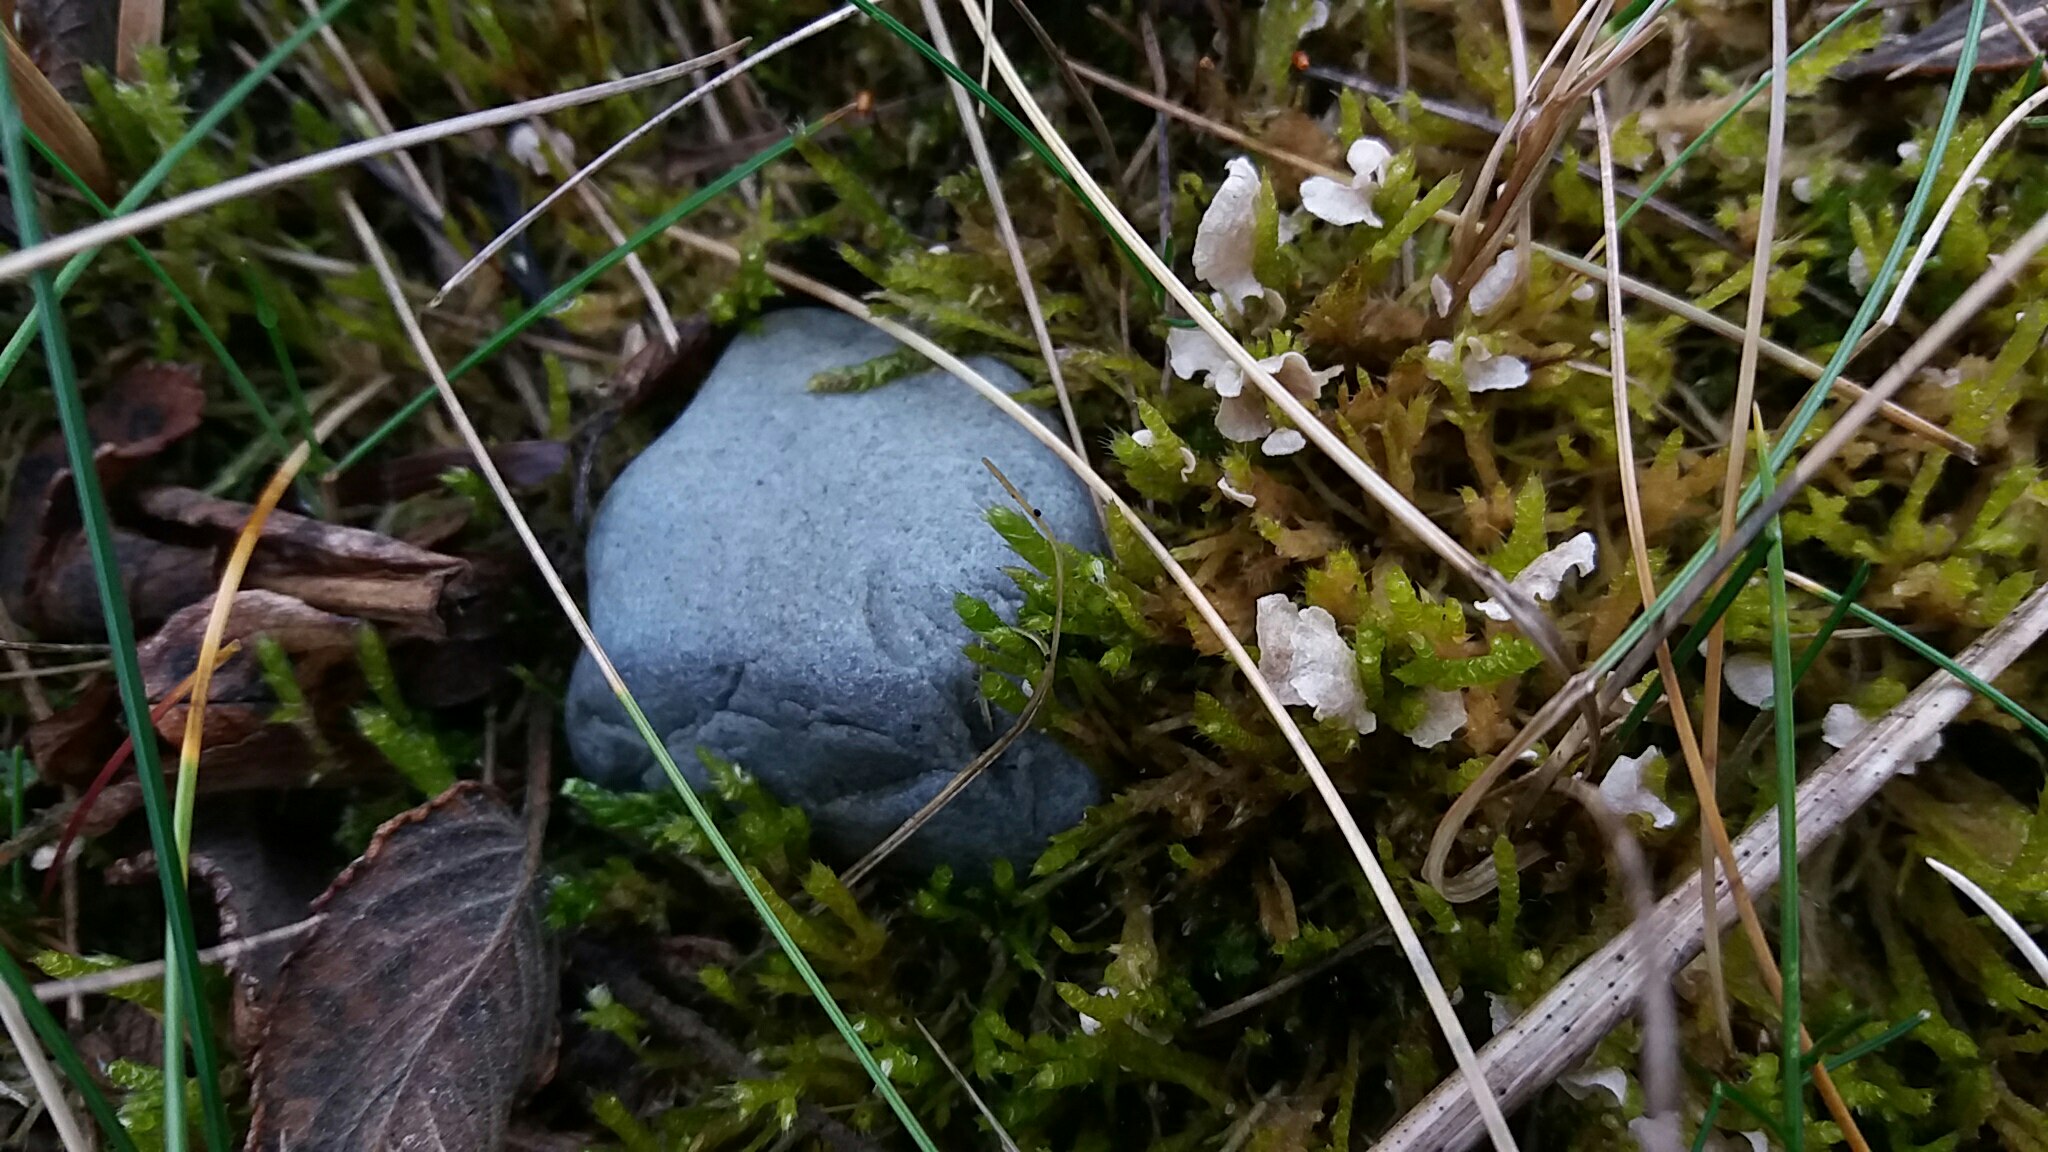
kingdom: Fungi
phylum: Basidiomycota
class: Agaricomycetes
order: Agaricales
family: Hygrophoraceae
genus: Arrhenia
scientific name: Arrhenia retiruga
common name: lille fontænehat
